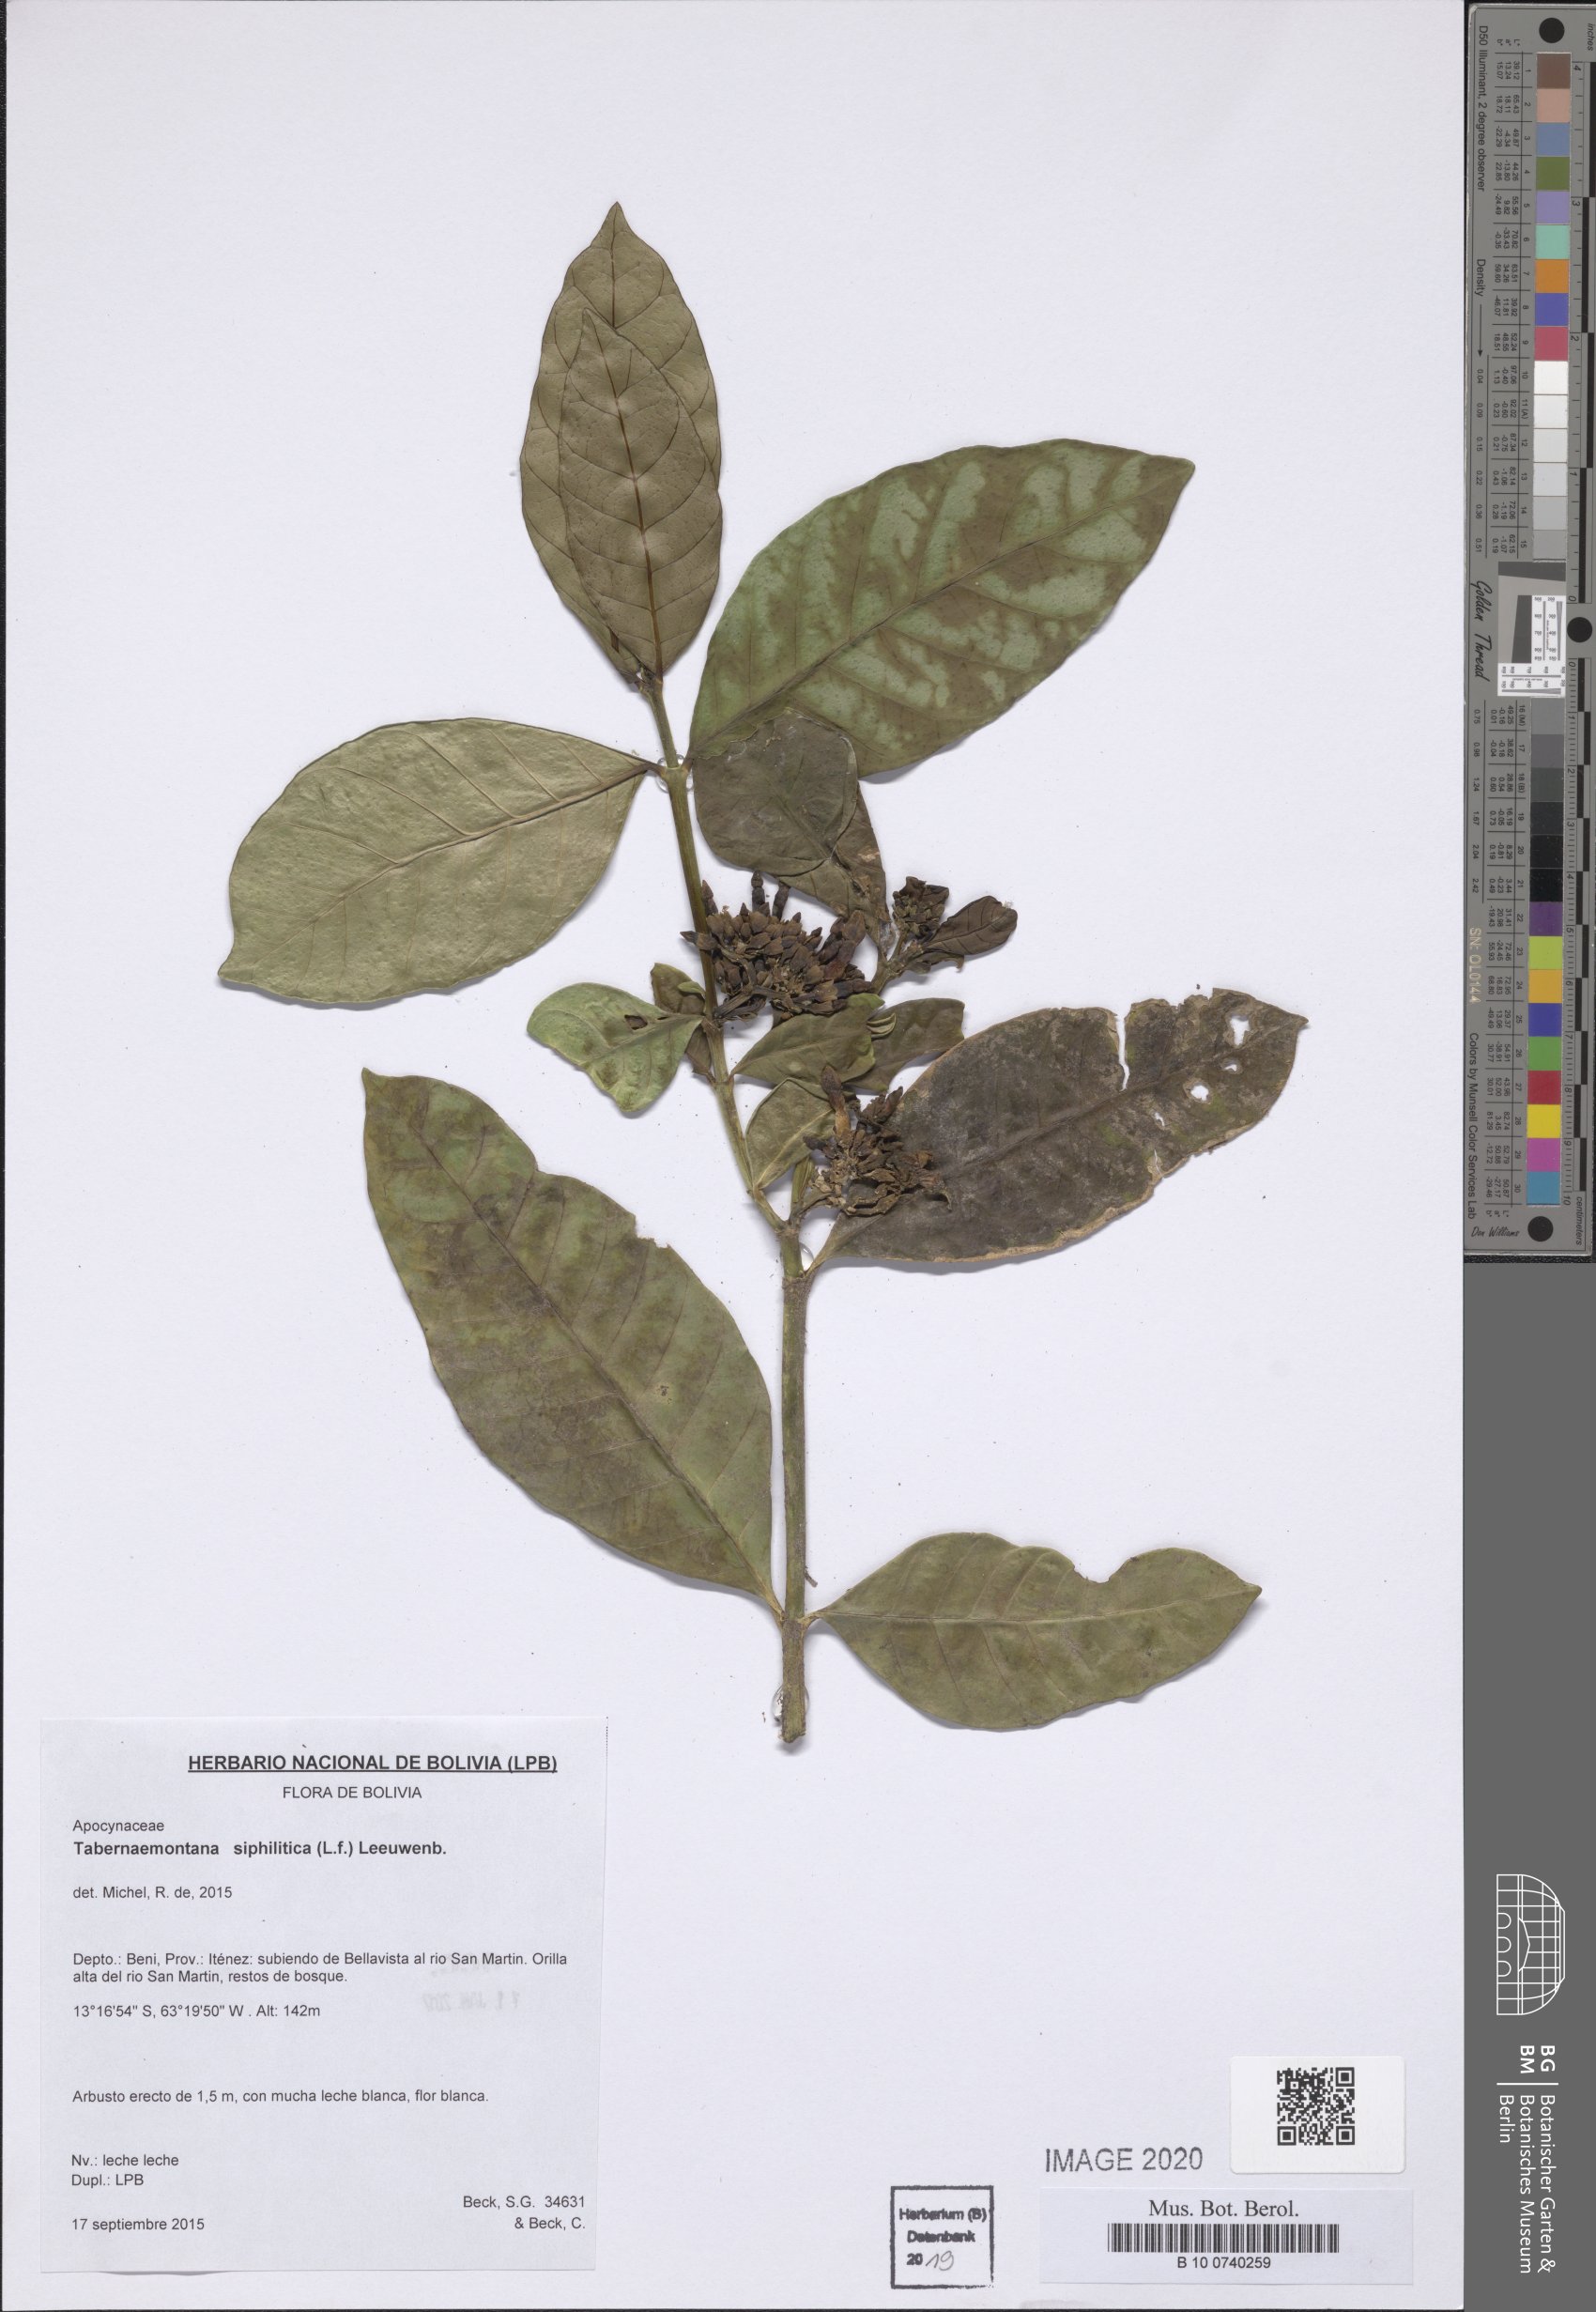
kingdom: Plantae
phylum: Tracheophyta
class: Magnoliopsida
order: Gentianales
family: Apocynaceae
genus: Tabernaemontana
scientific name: Tabernaemontana siphilitica
